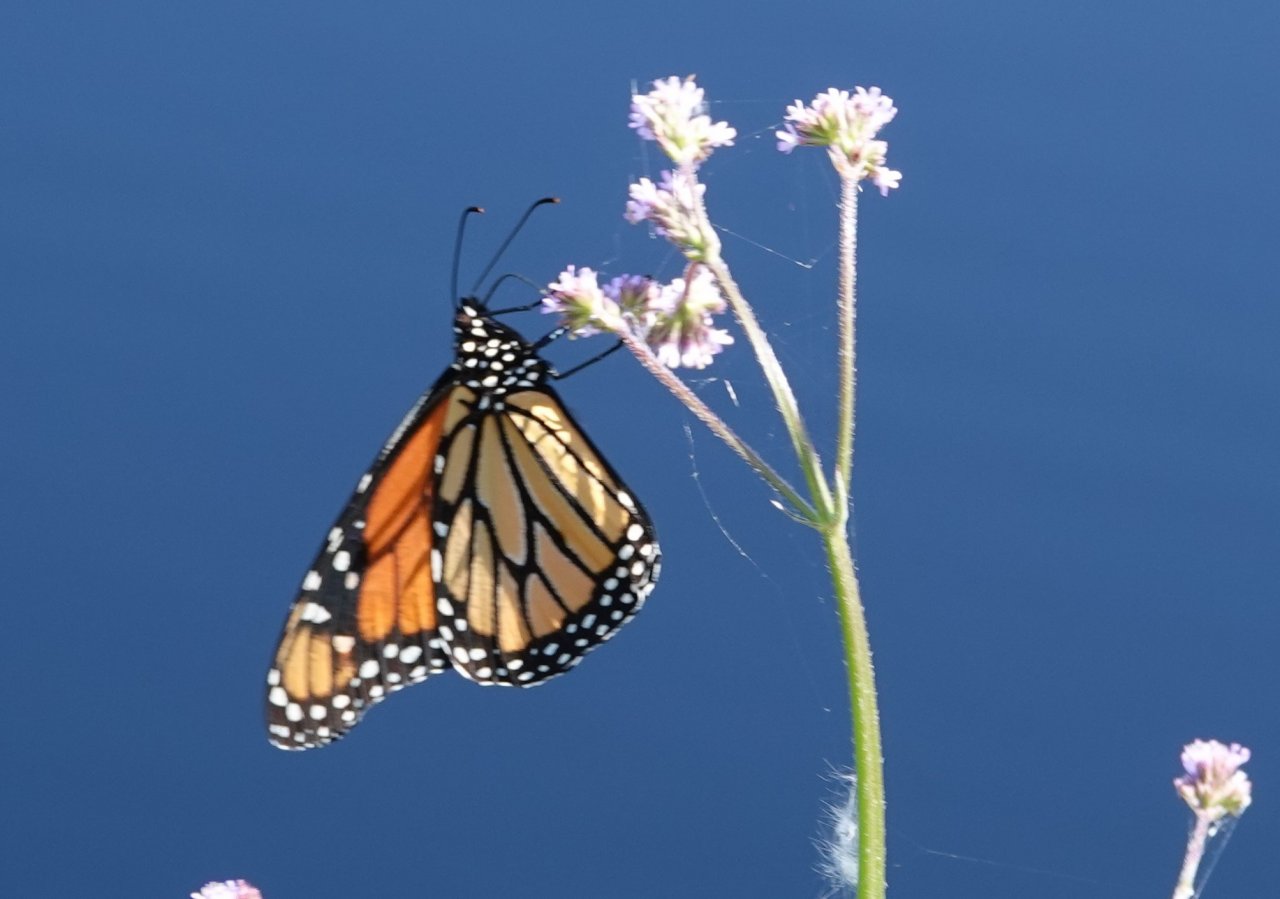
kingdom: Animalia
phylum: Arthropoda
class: Insecta
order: Lepidoptera
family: Nymphalidae
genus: Danaus
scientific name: Danaus plexippus
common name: Monarch
